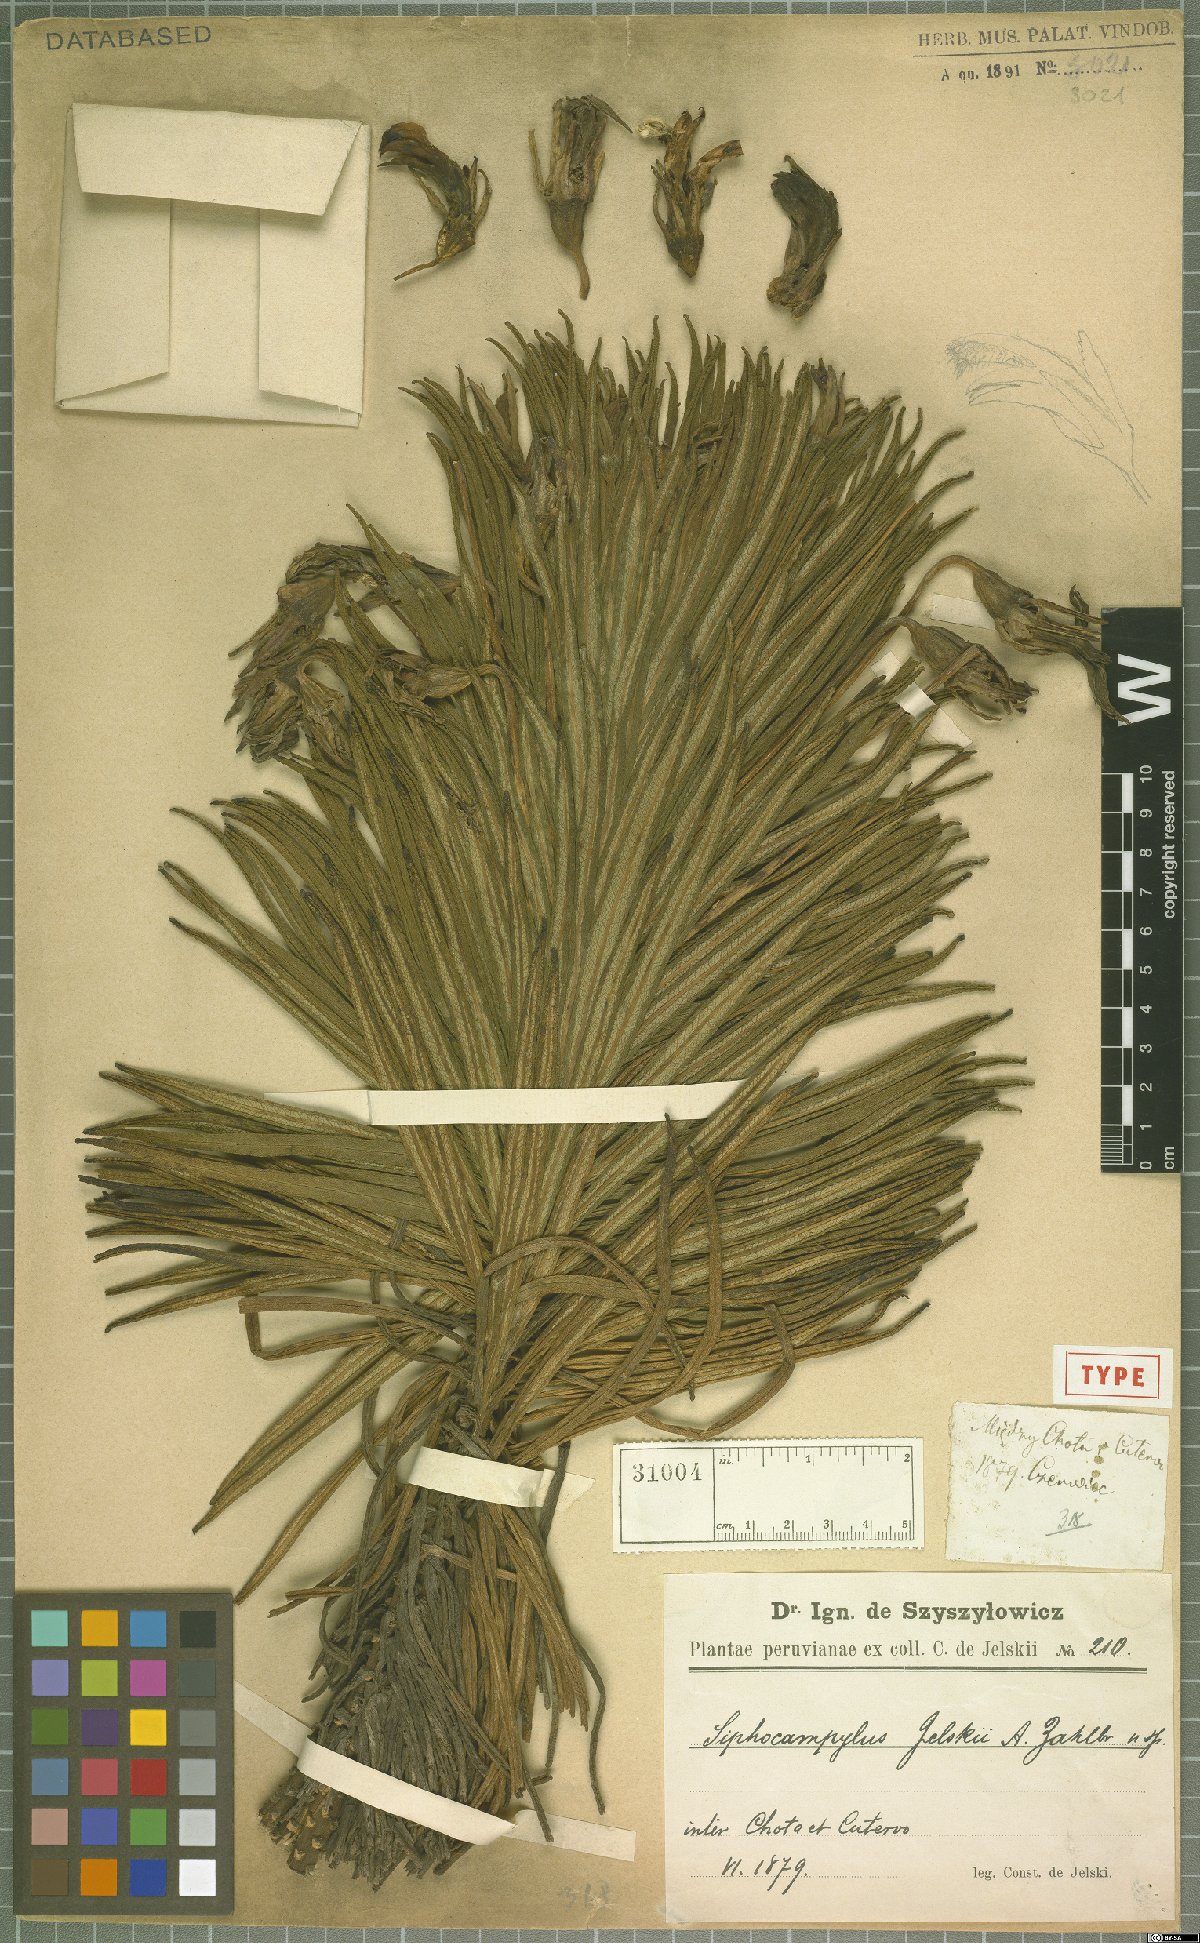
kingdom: Plantae
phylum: Tracheophyta
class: Magnoliopsida
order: Asterales
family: Campanulaceae
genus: Siphocampylus
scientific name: Siphocampylus jelskii
